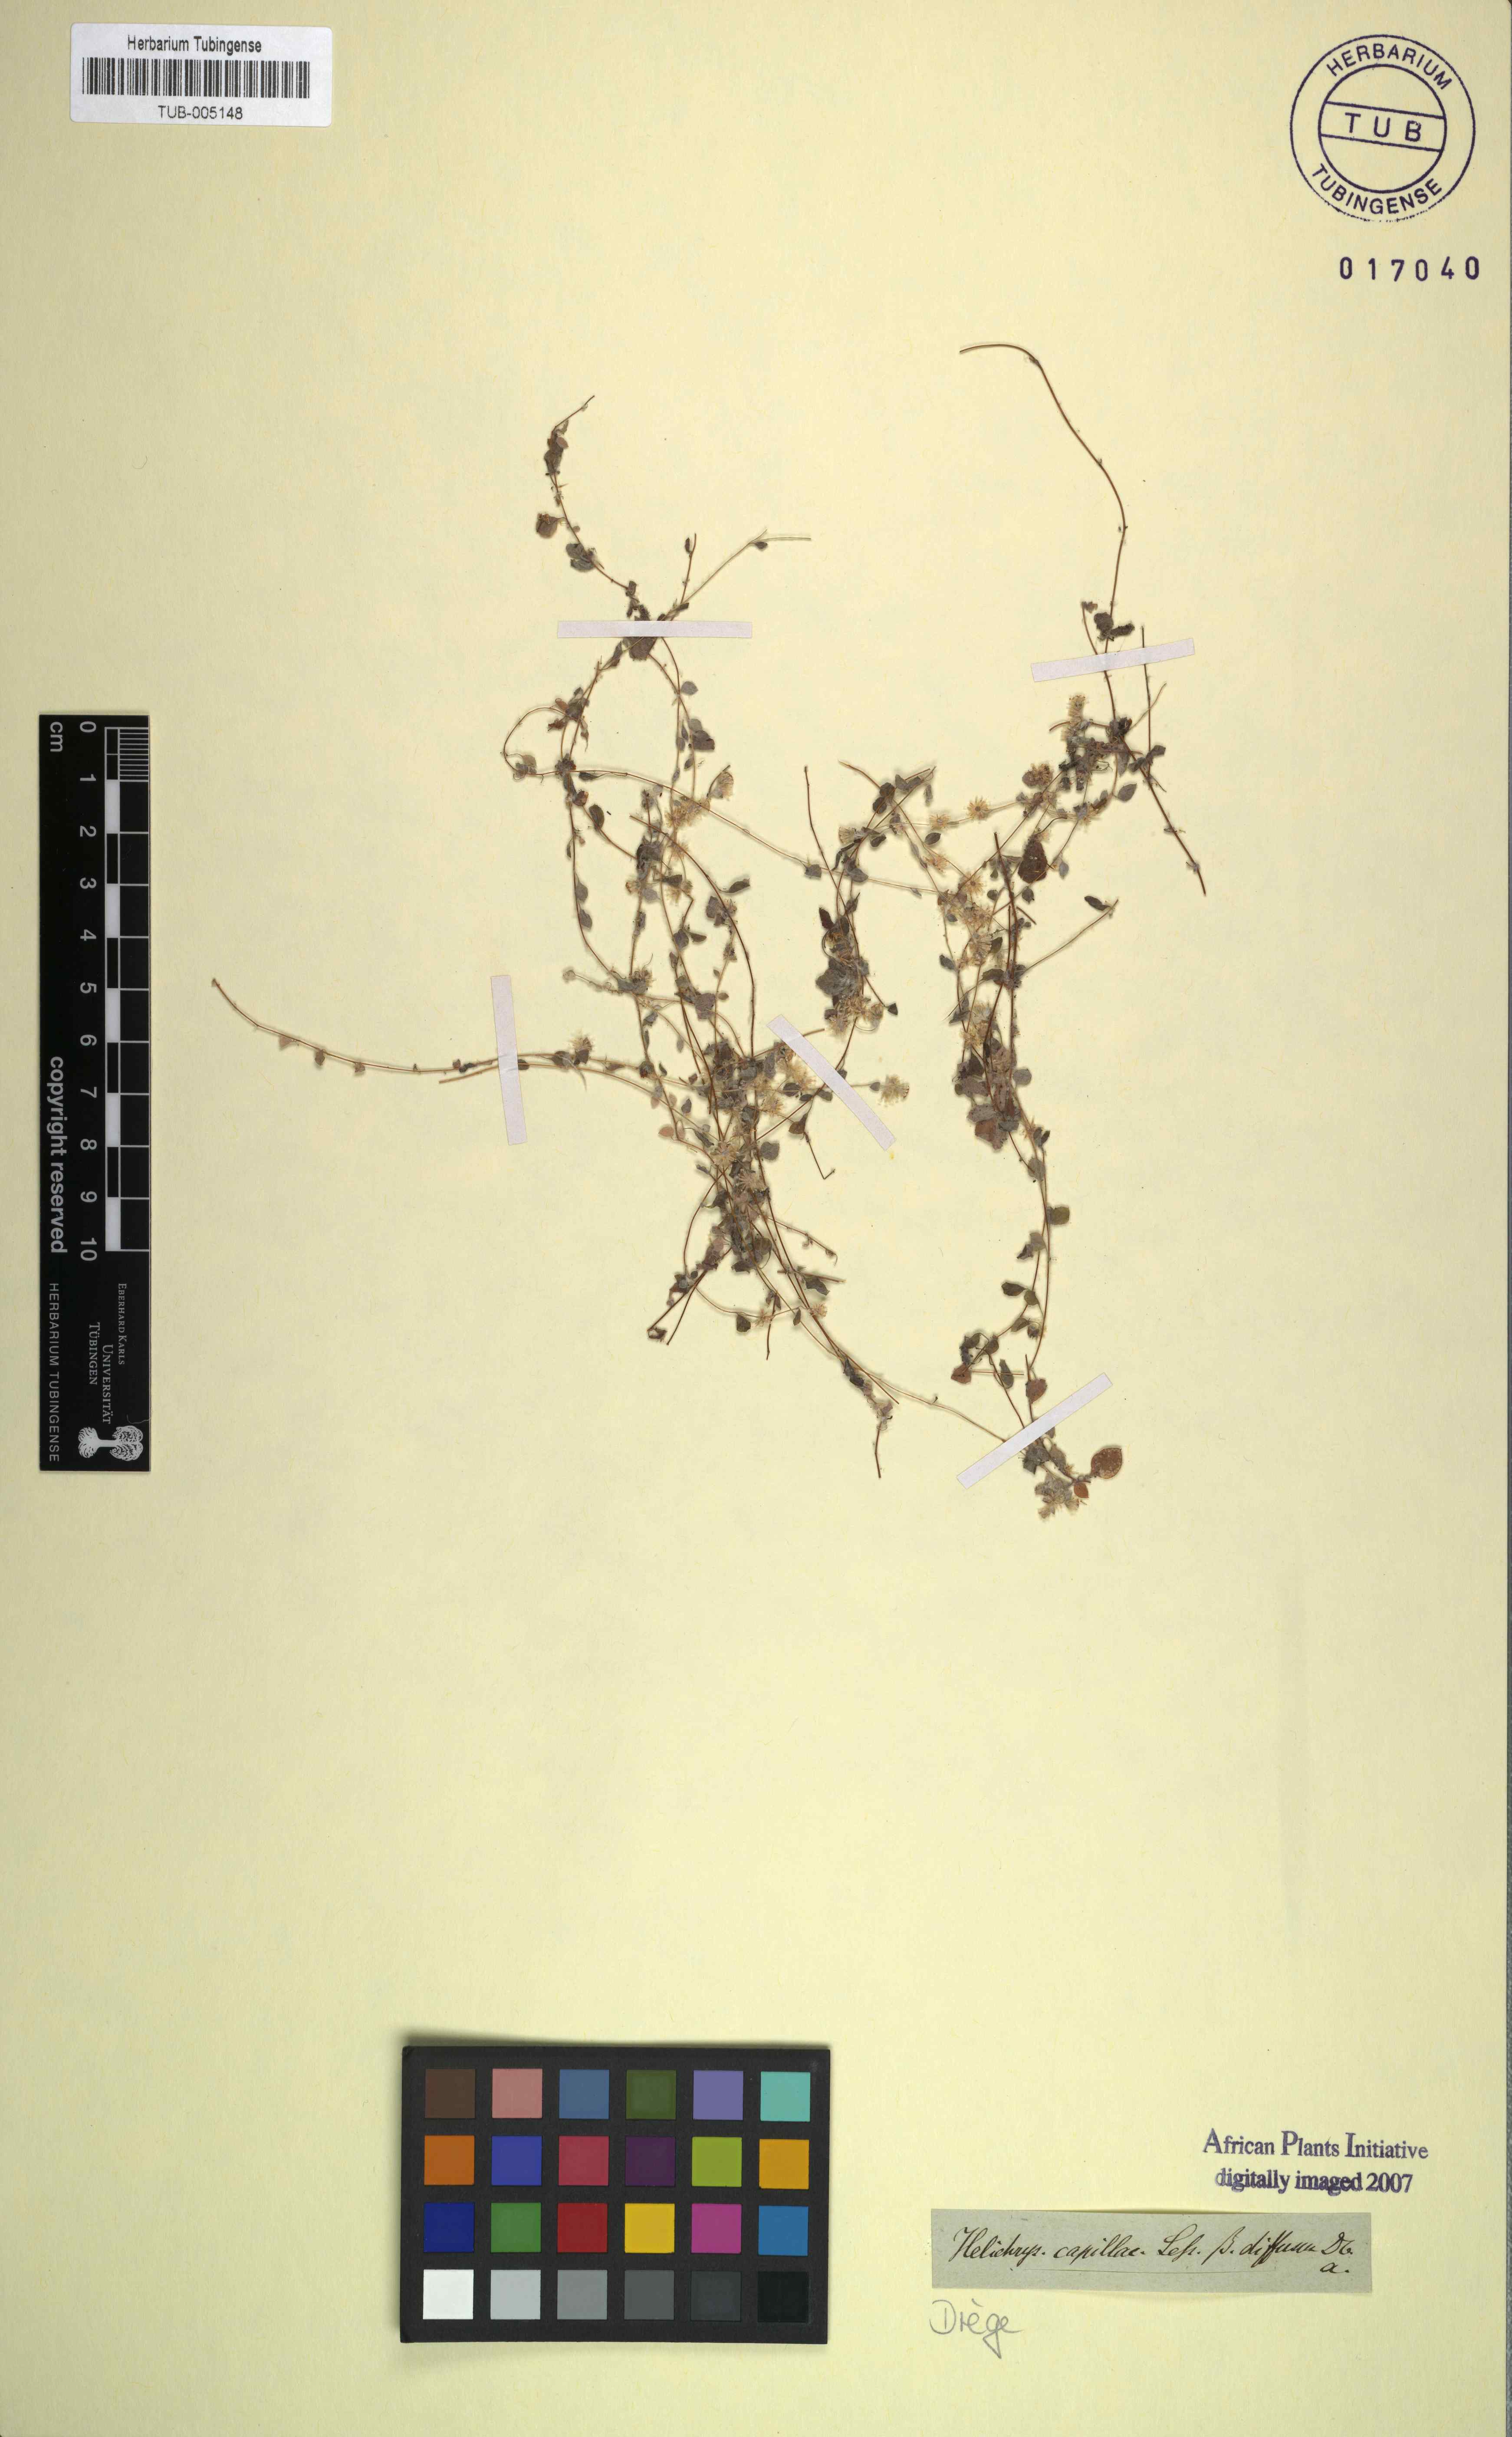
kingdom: Plantae
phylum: Tracheophyta
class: Magnoliopsida
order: Asterales
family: Asteraceae
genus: Troglophyton
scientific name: Troglophyton capillaceum
